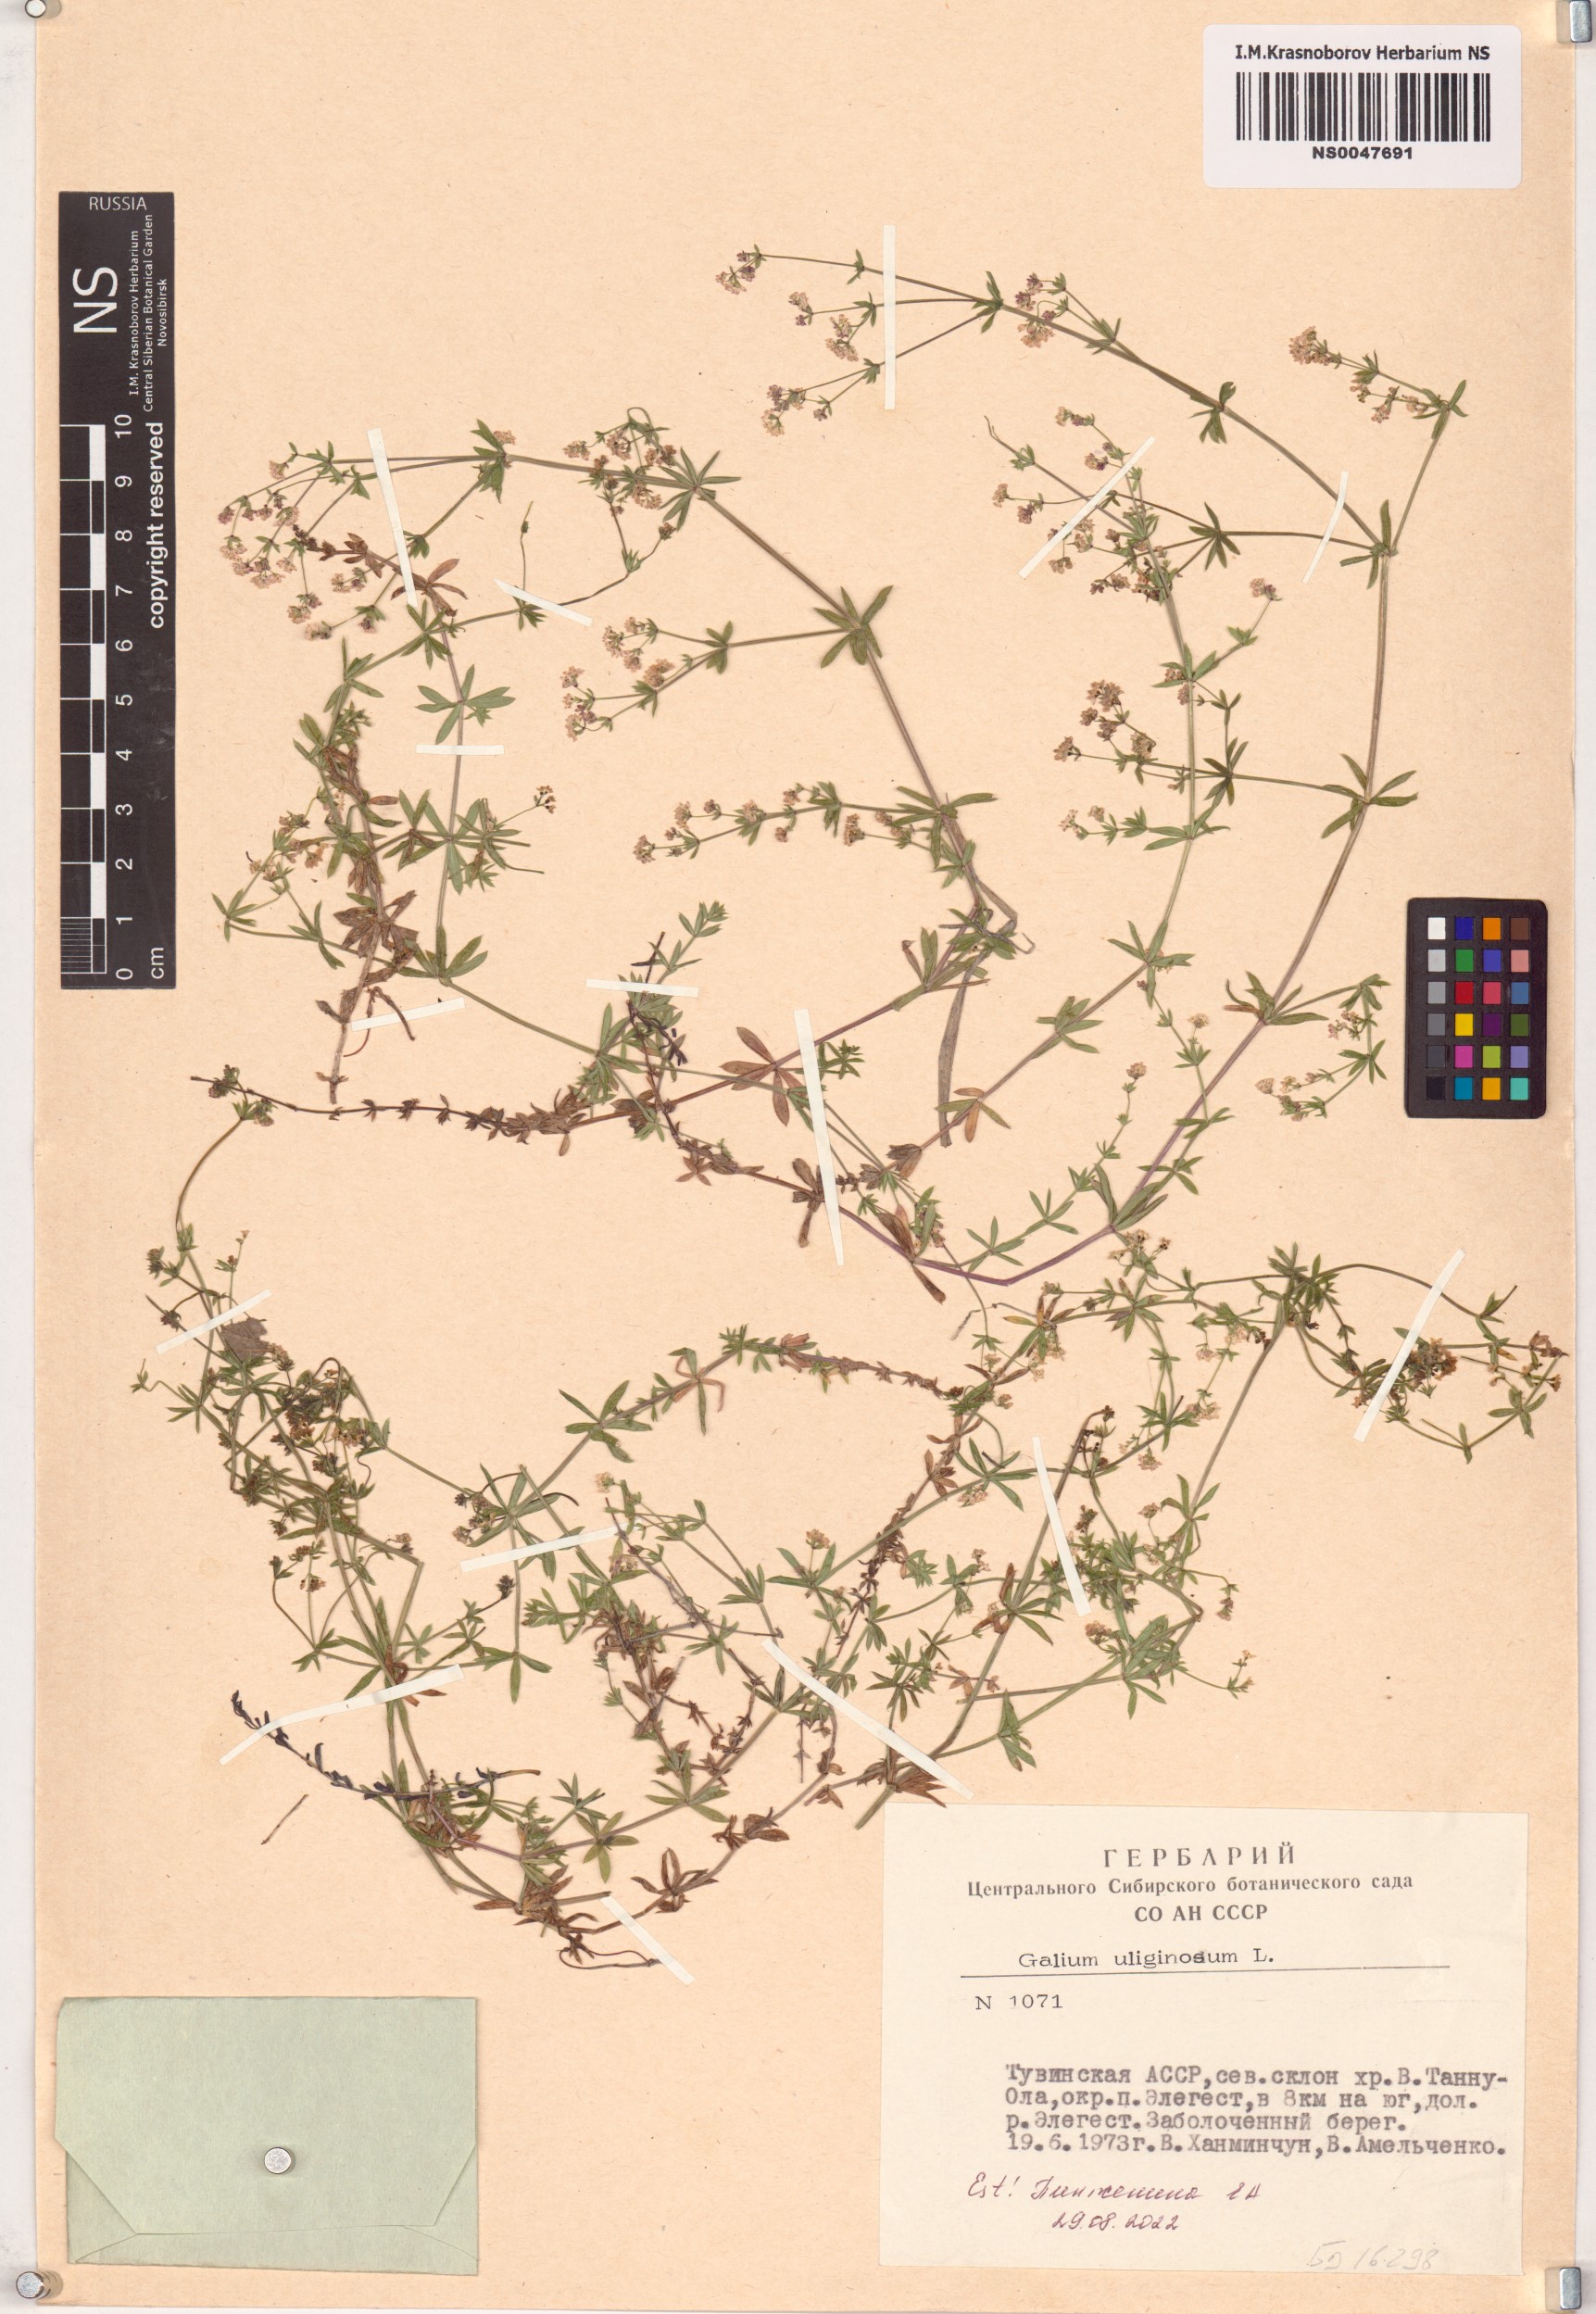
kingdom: Plantae
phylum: Tracheophyta
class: Magnoliopsida
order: Gentianales
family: Rubiaceae
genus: Galium
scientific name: Galium uliginosum
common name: Fen bedstraw
